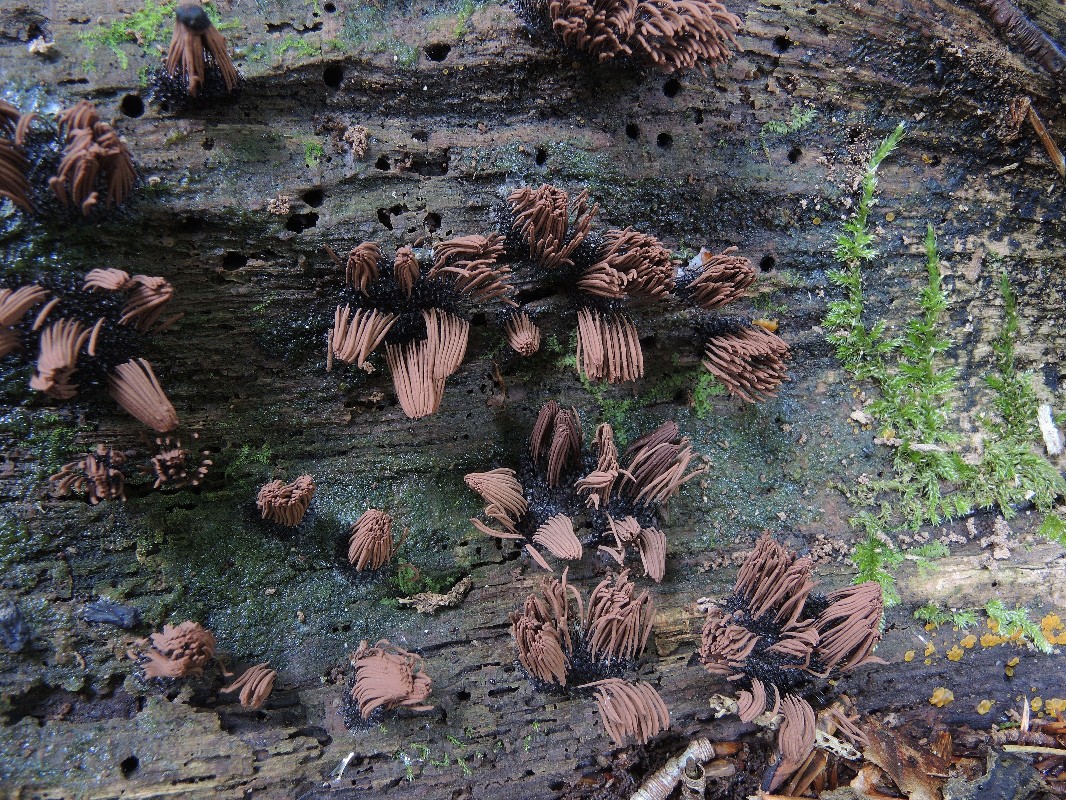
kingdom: Protozoa
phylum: Mycetozoa
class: Myxomycetes
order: Stemonitidales
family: Stemonitidaceae
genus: Stemonitis
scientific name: Stemonitis axifera
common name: rødbrun støvkølle
